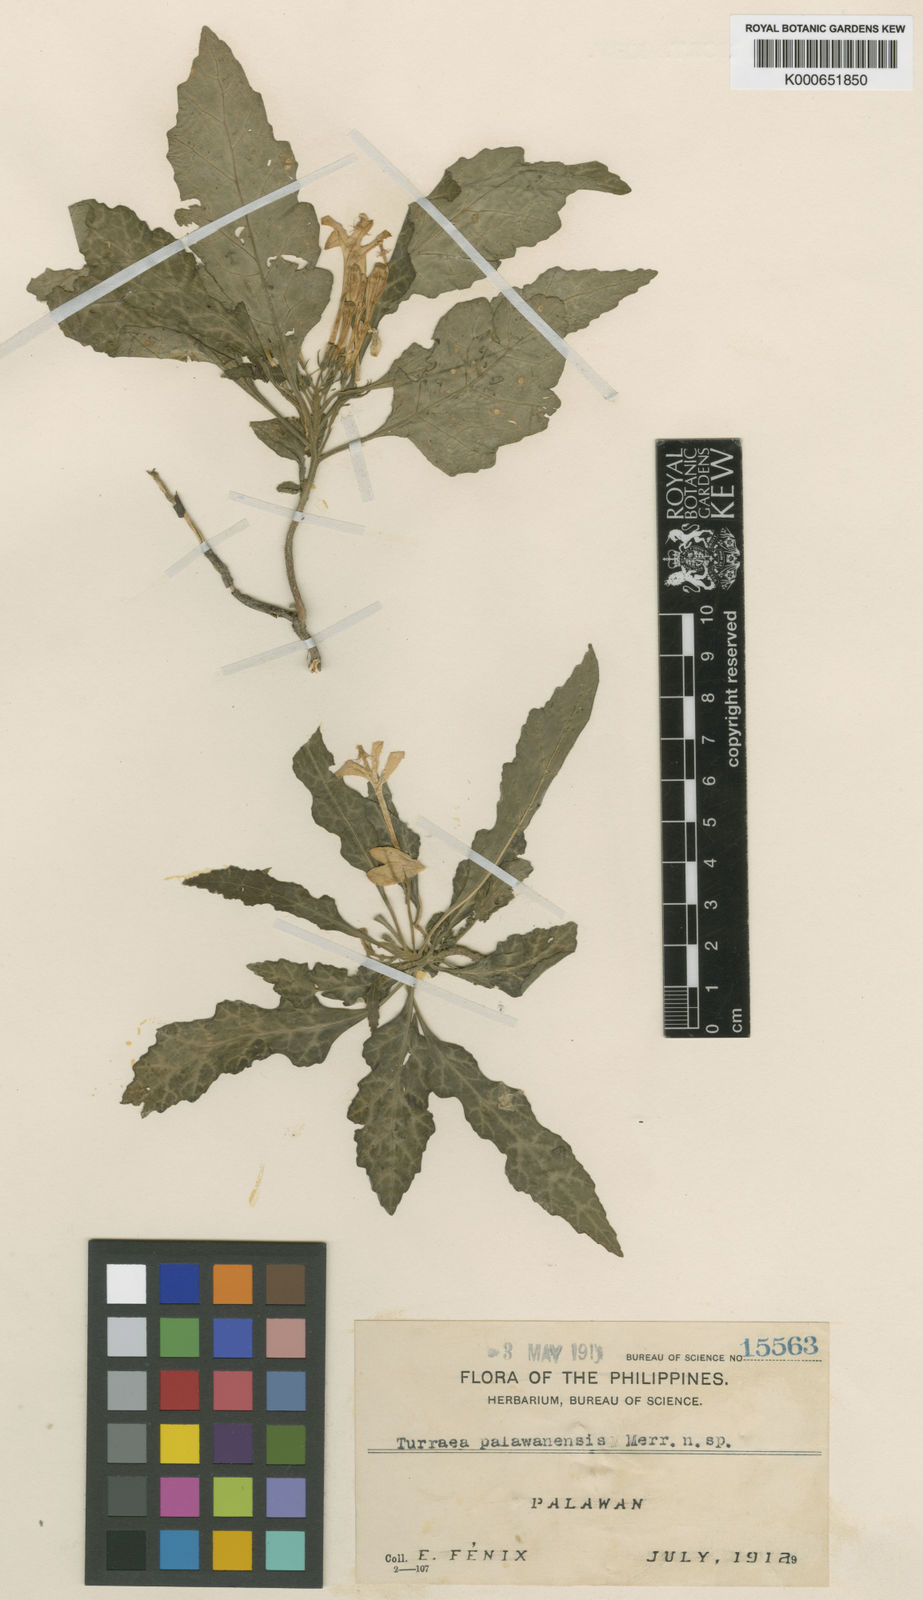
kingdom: Plantae
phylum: Tracheophyta
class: Magnoliopsida
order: Sapindales
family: Meliaceae
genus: Munronia
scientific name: Munronia humilis
